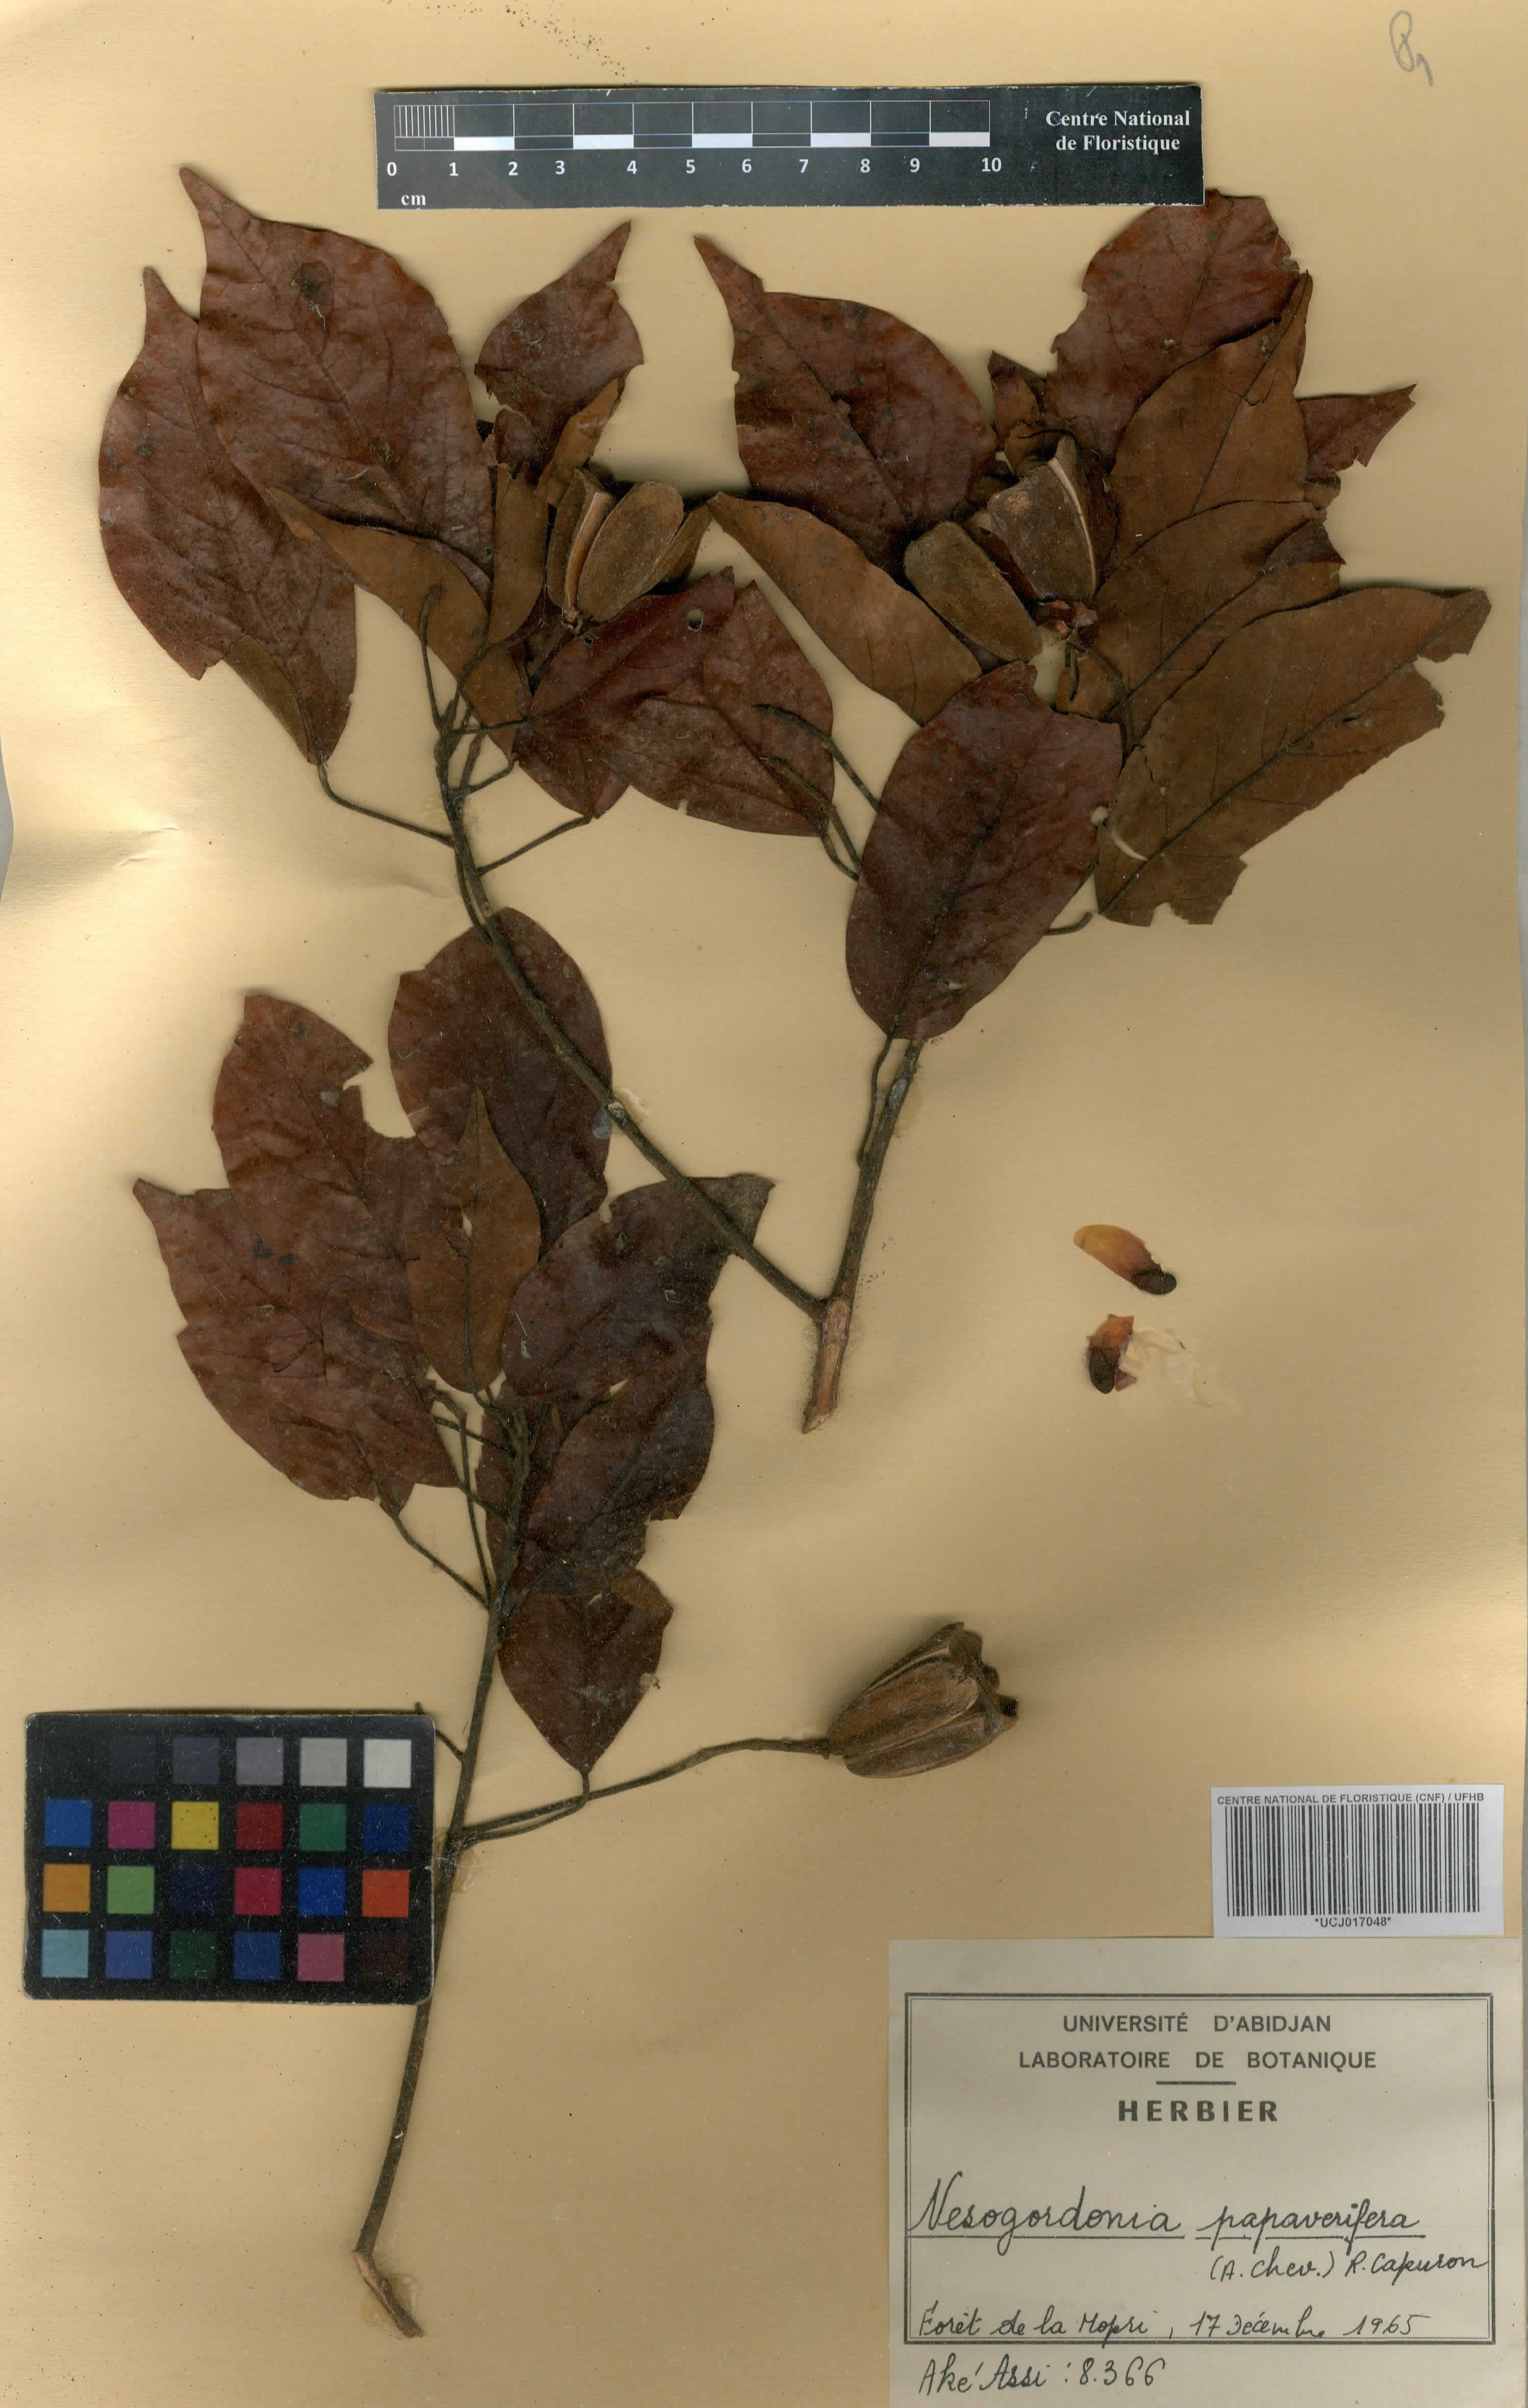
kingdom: Plantae
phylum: Tracheophyta
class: Magnoliopsida
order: Malvales
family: Malvaceae
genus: Nesogordonia
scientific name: Nesogordonia papaverifera
